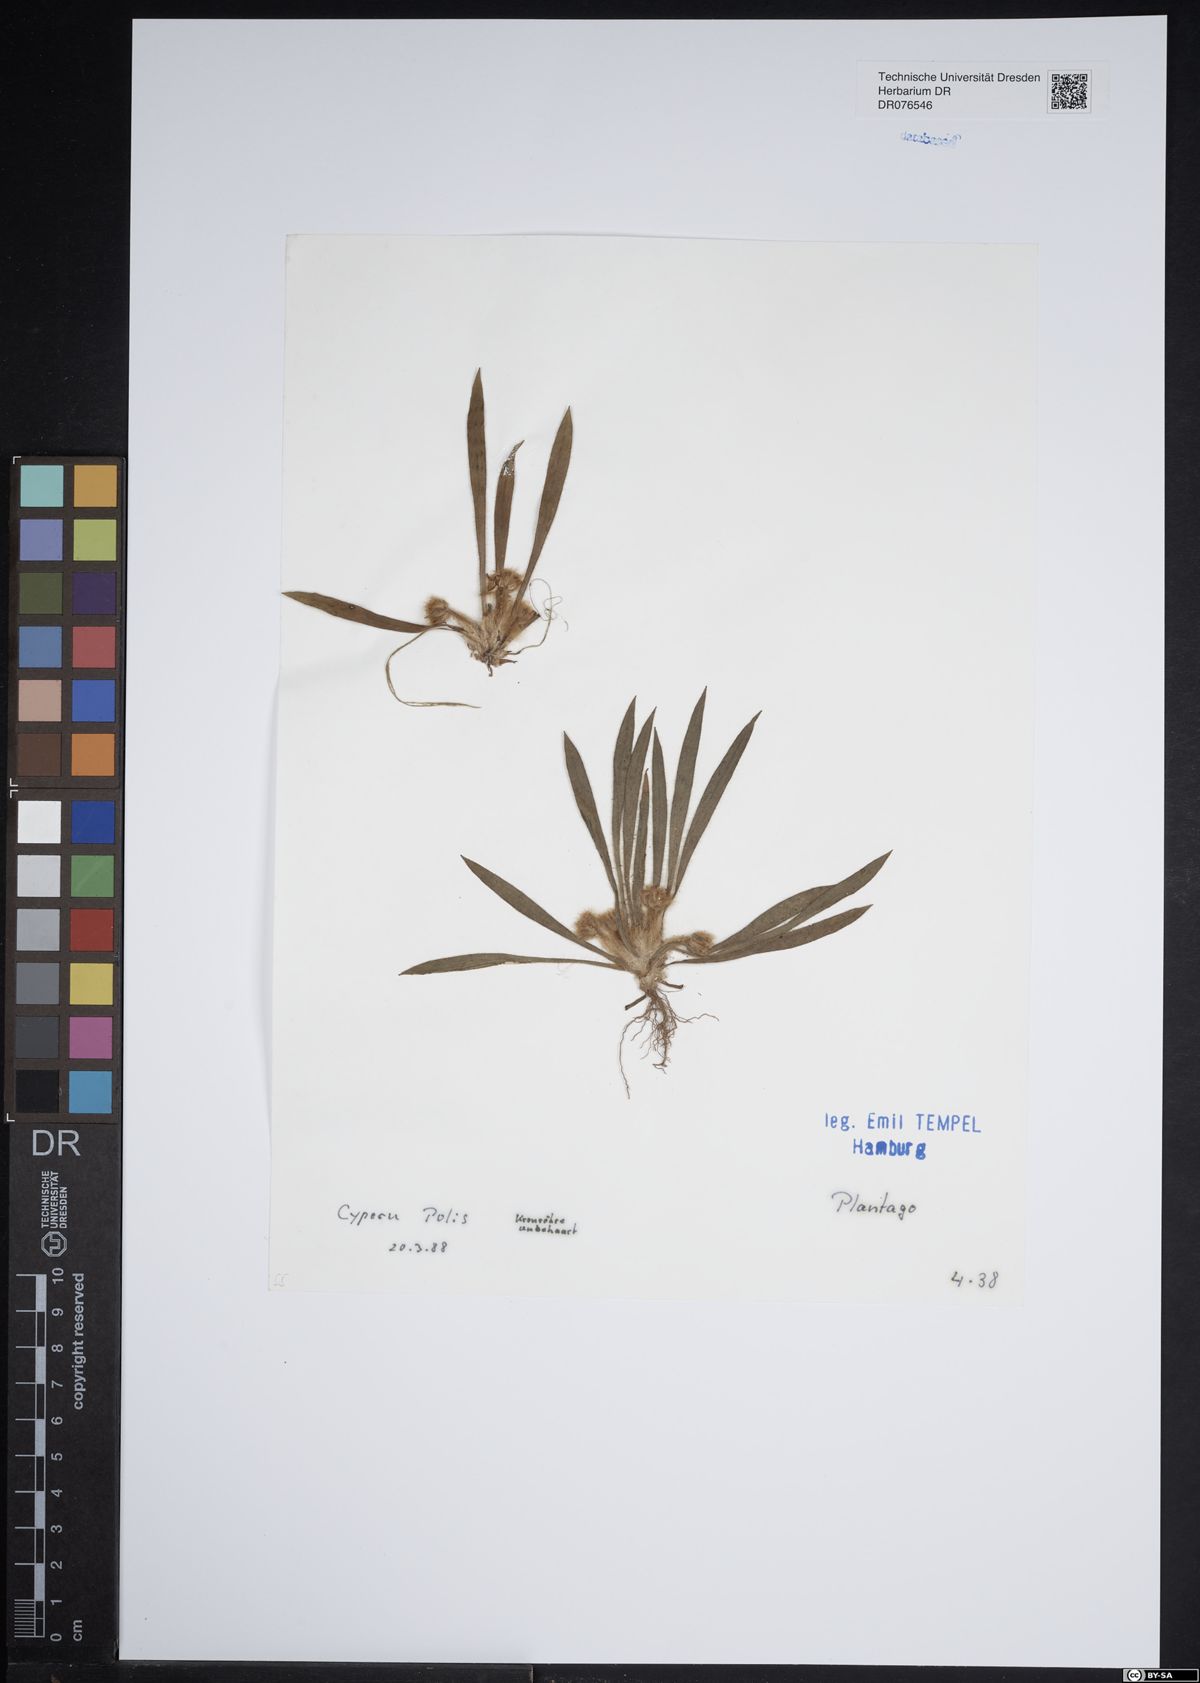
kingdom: Plantae
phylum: Tracheophyta
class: Magnoliopsida
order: Lamiales
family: Plantaginaceae
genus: Plantago
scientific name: Plantago
